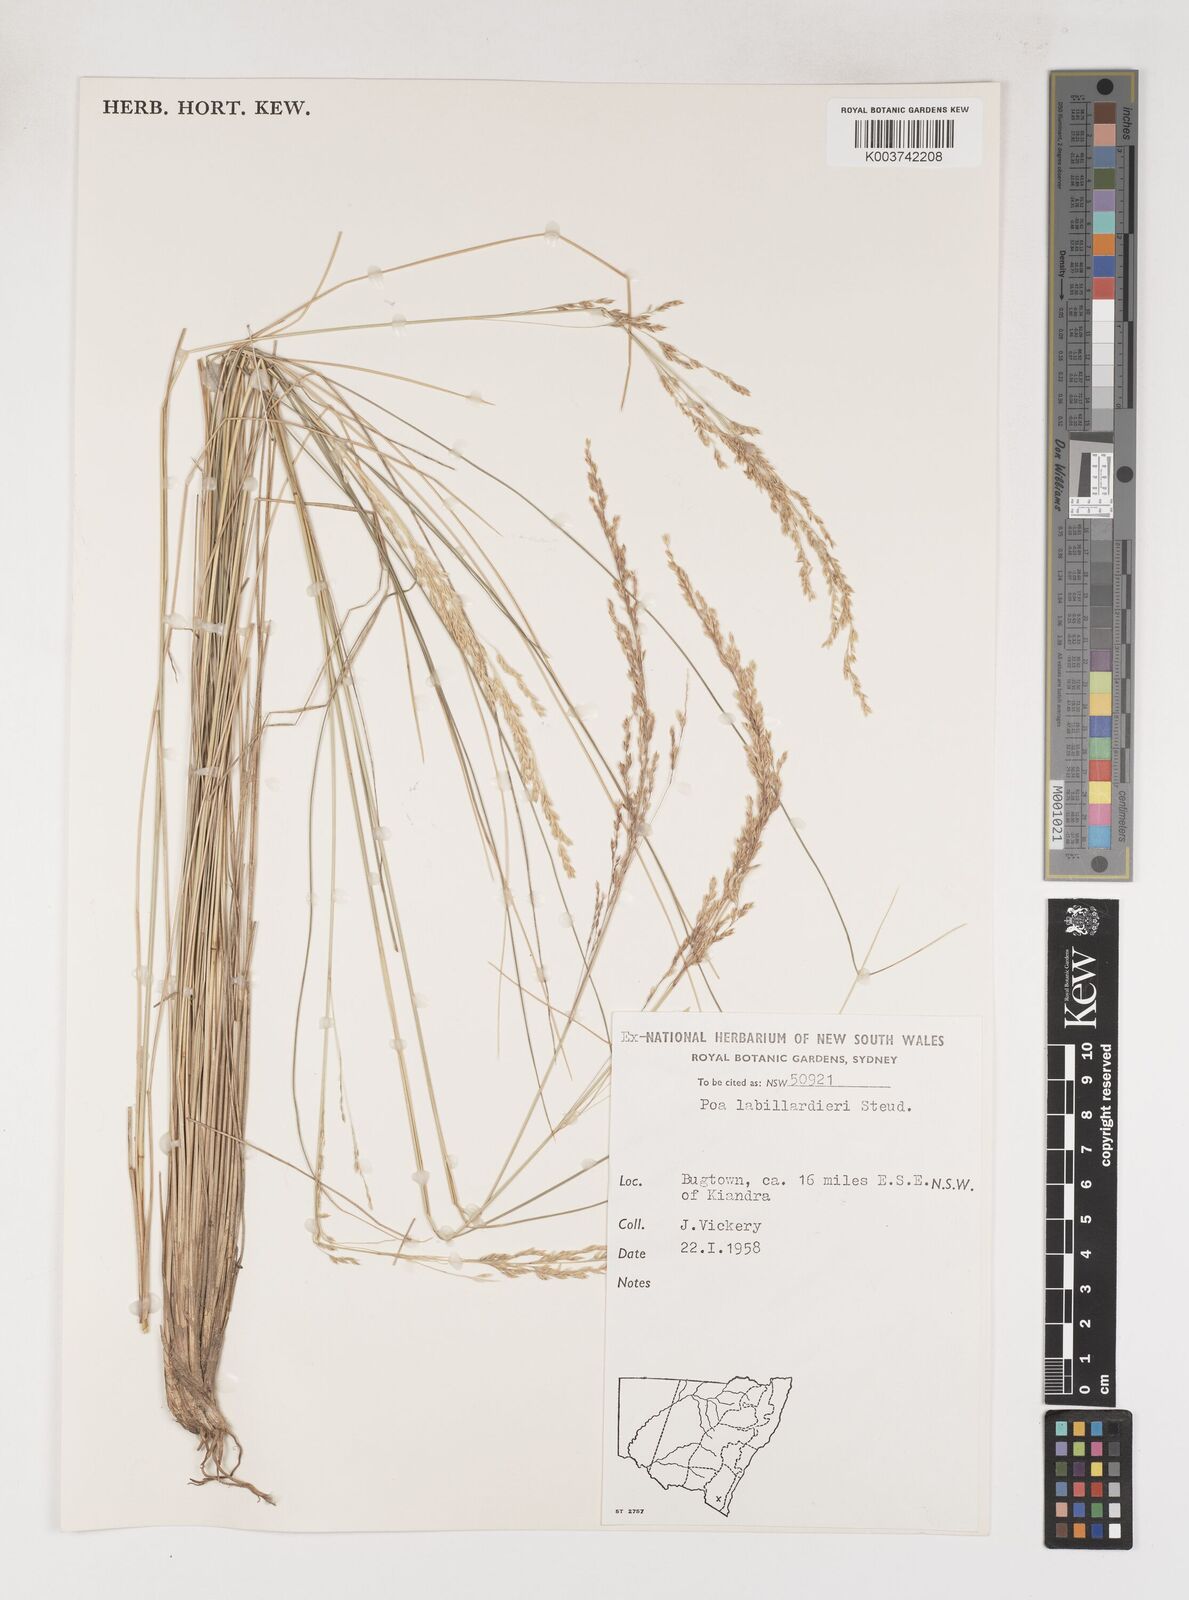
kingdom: Plantae
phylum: Tracheophyta
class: Liliopsida
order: Poales
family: Poaceae
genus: Poa
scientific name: Poa labillardierei
